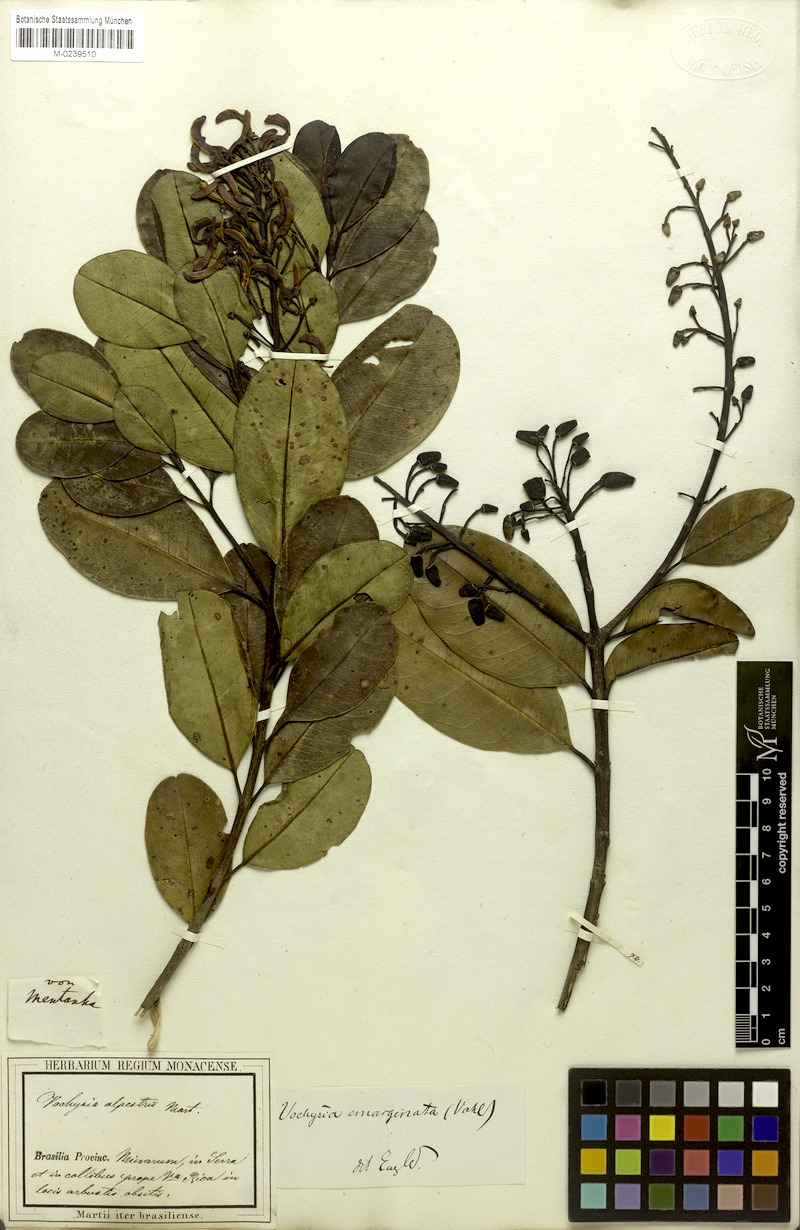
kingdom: Plantae
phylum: Tracheophyta
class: Magnoliopsida
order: Myrtales
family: Vochysiaceae
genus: Vochysia
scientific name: Vochysia emarginata
